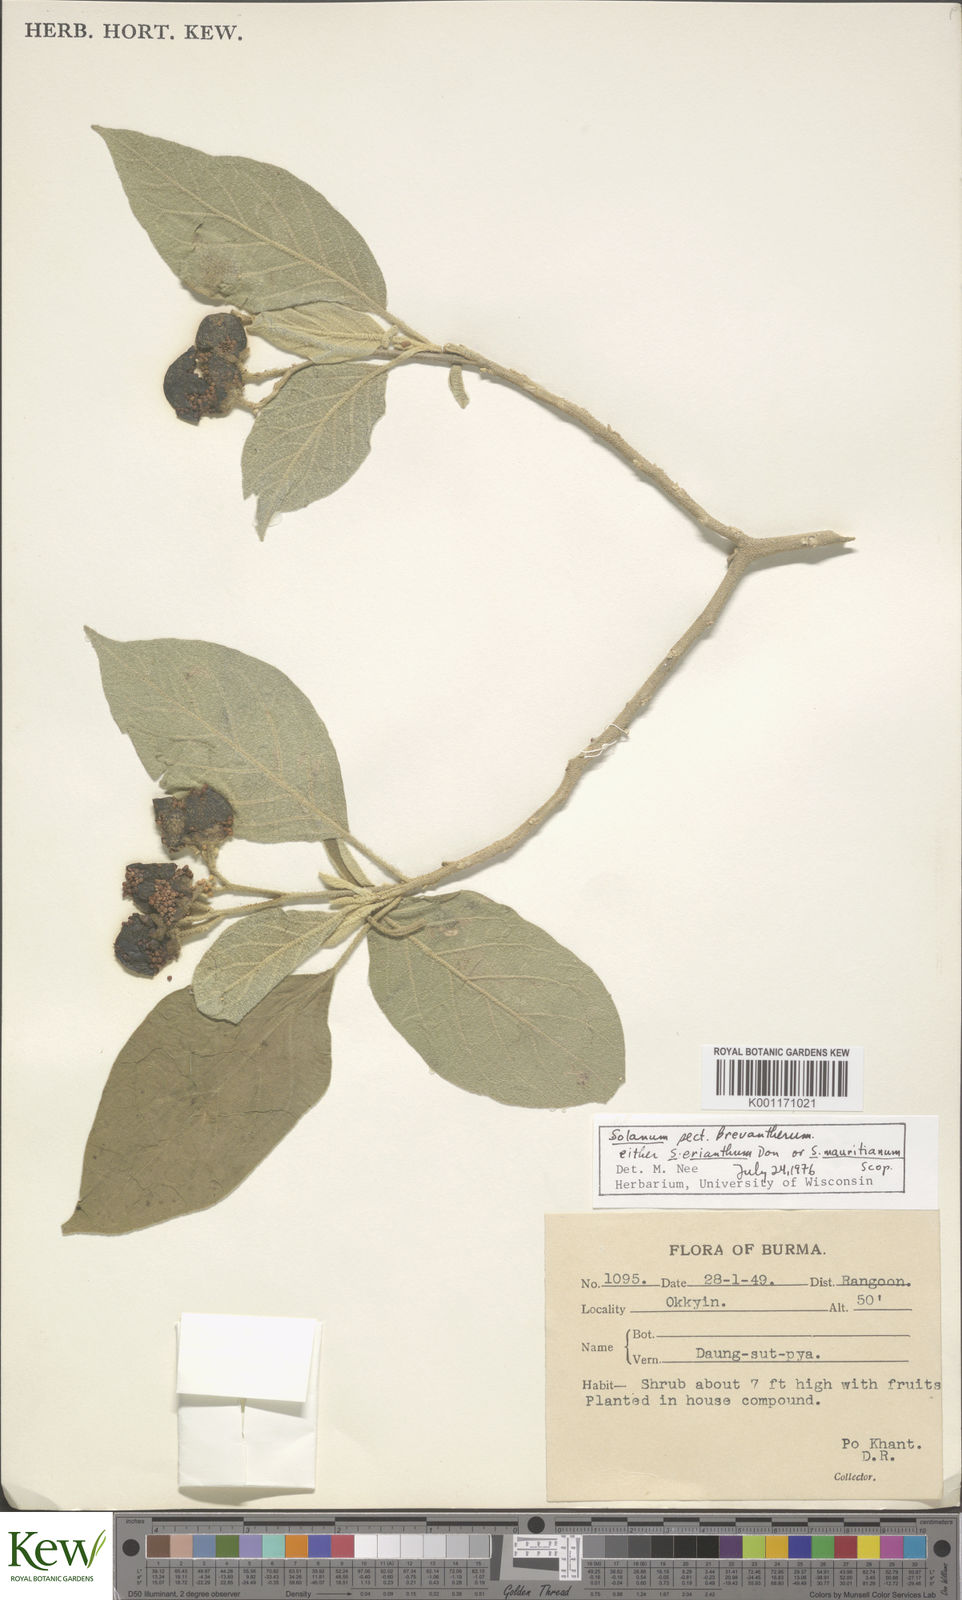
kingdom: Plantae
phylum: Tracheophyta
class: Magnoliopsida
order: Solanales
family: Solanaceae
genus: Solanum
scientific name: Solanum
